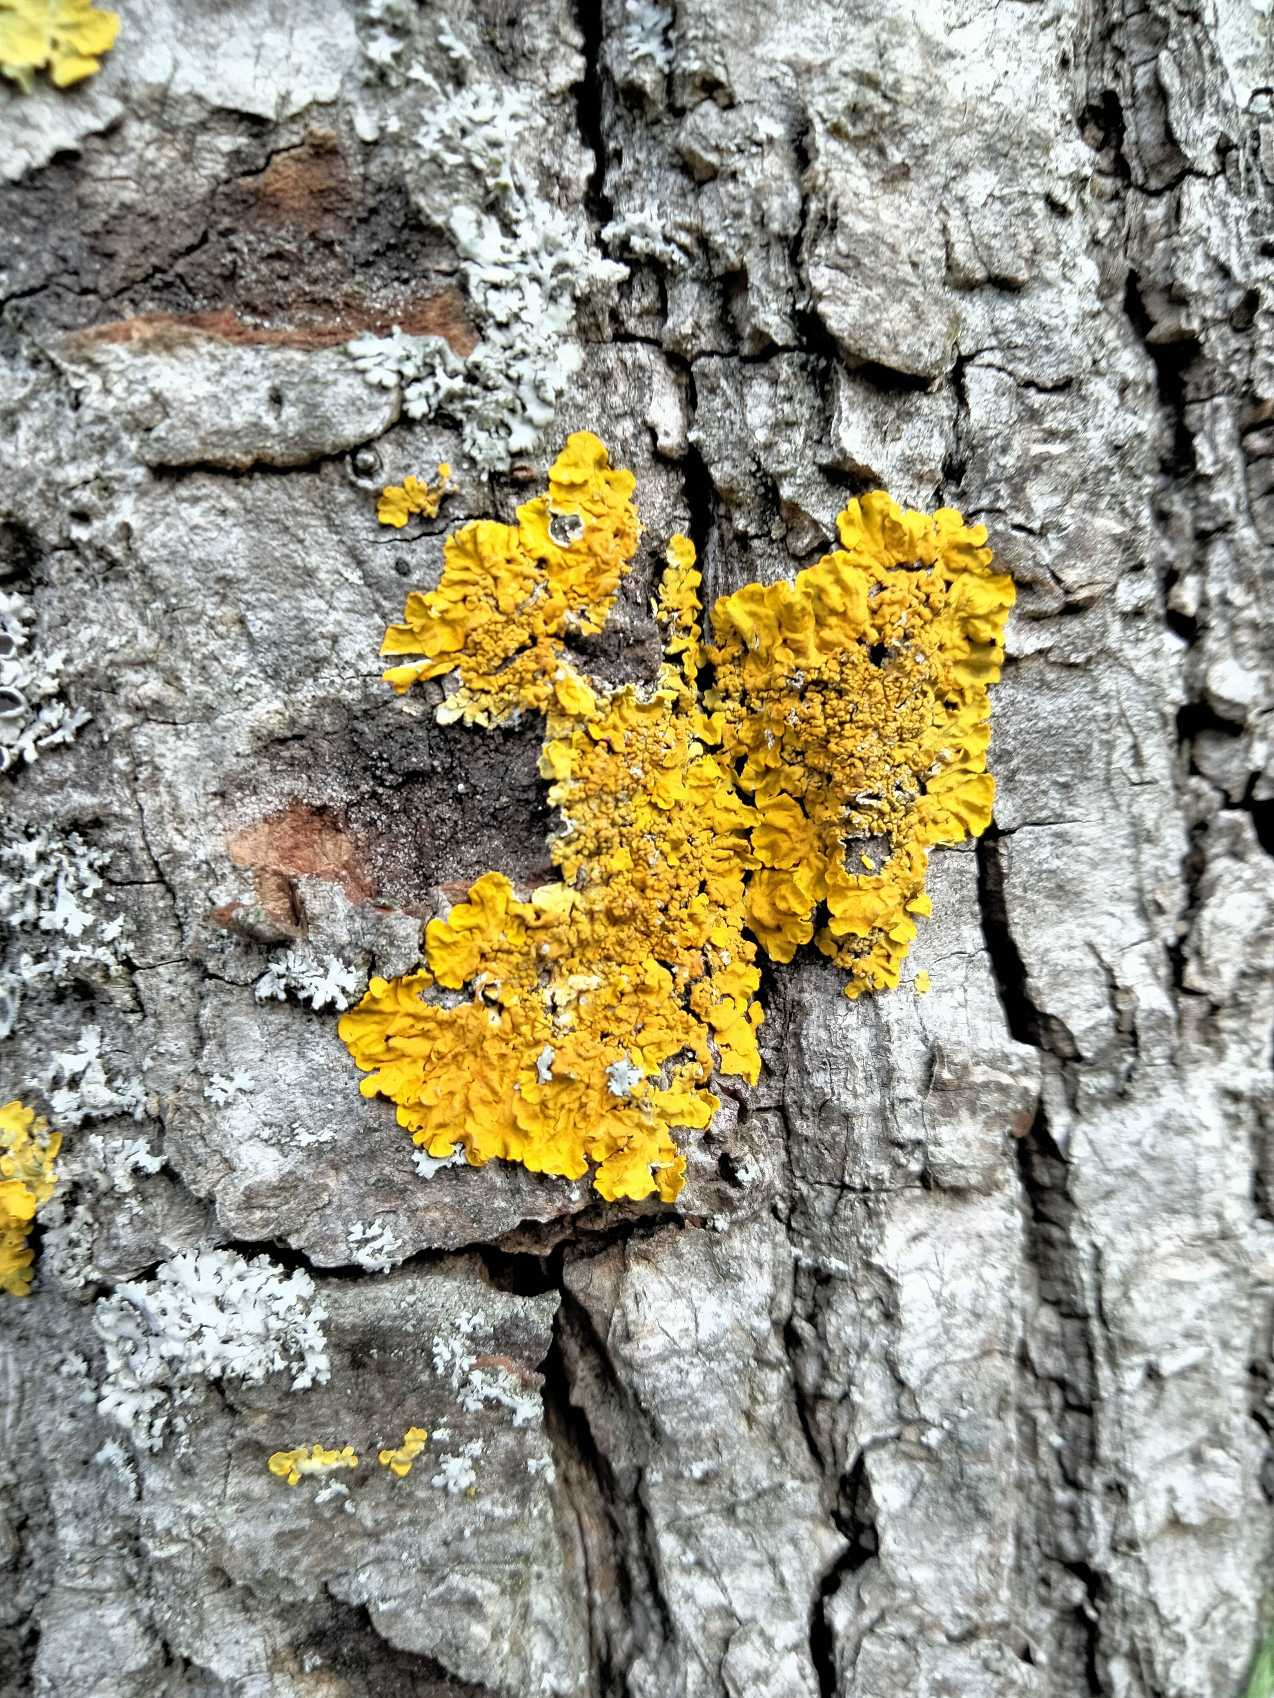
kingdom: Fungi
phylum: Ascomycota
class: Lecanoromycetes
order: Teloschistales
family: Teloschistaceae
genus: Xanthoria
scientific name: Xanthoria parietina
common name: Almindelig væggelav
